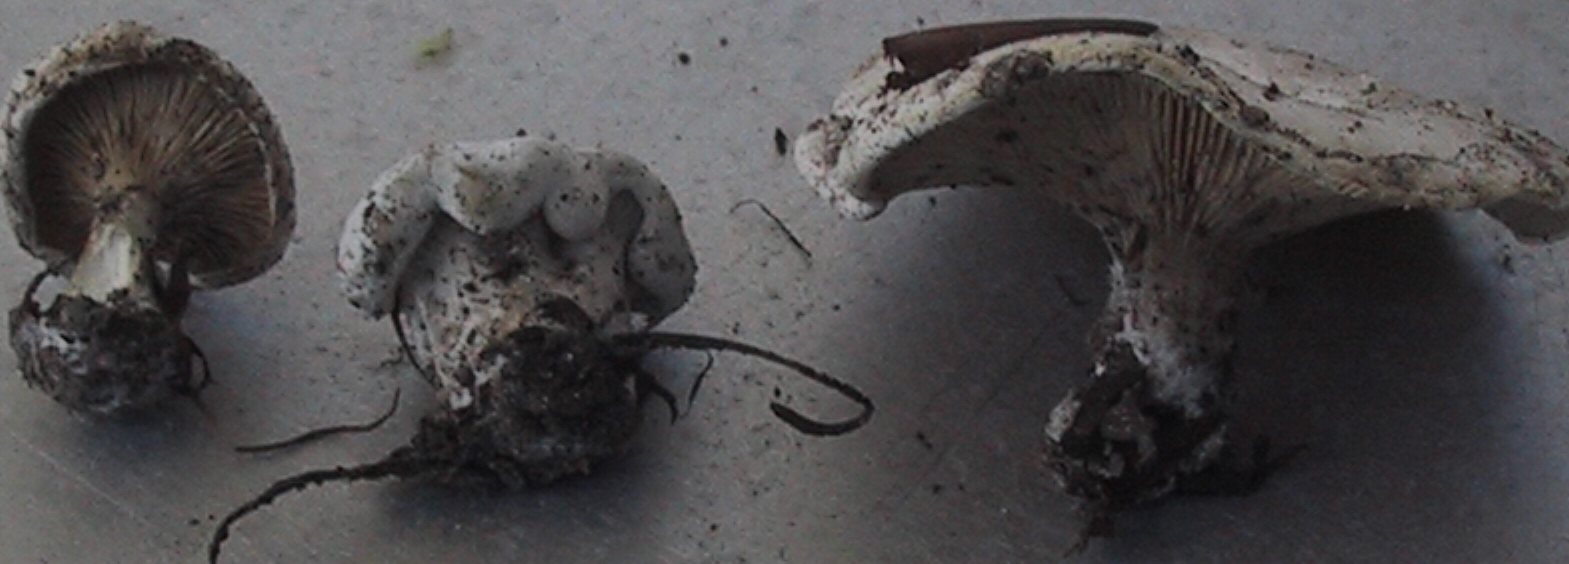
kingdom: Fungi
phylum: Basidiomycota
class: Agaricomycetes
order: Agaricales
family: Entolomataceae
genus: Clitopilus
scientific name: Clitopilus prunulus
